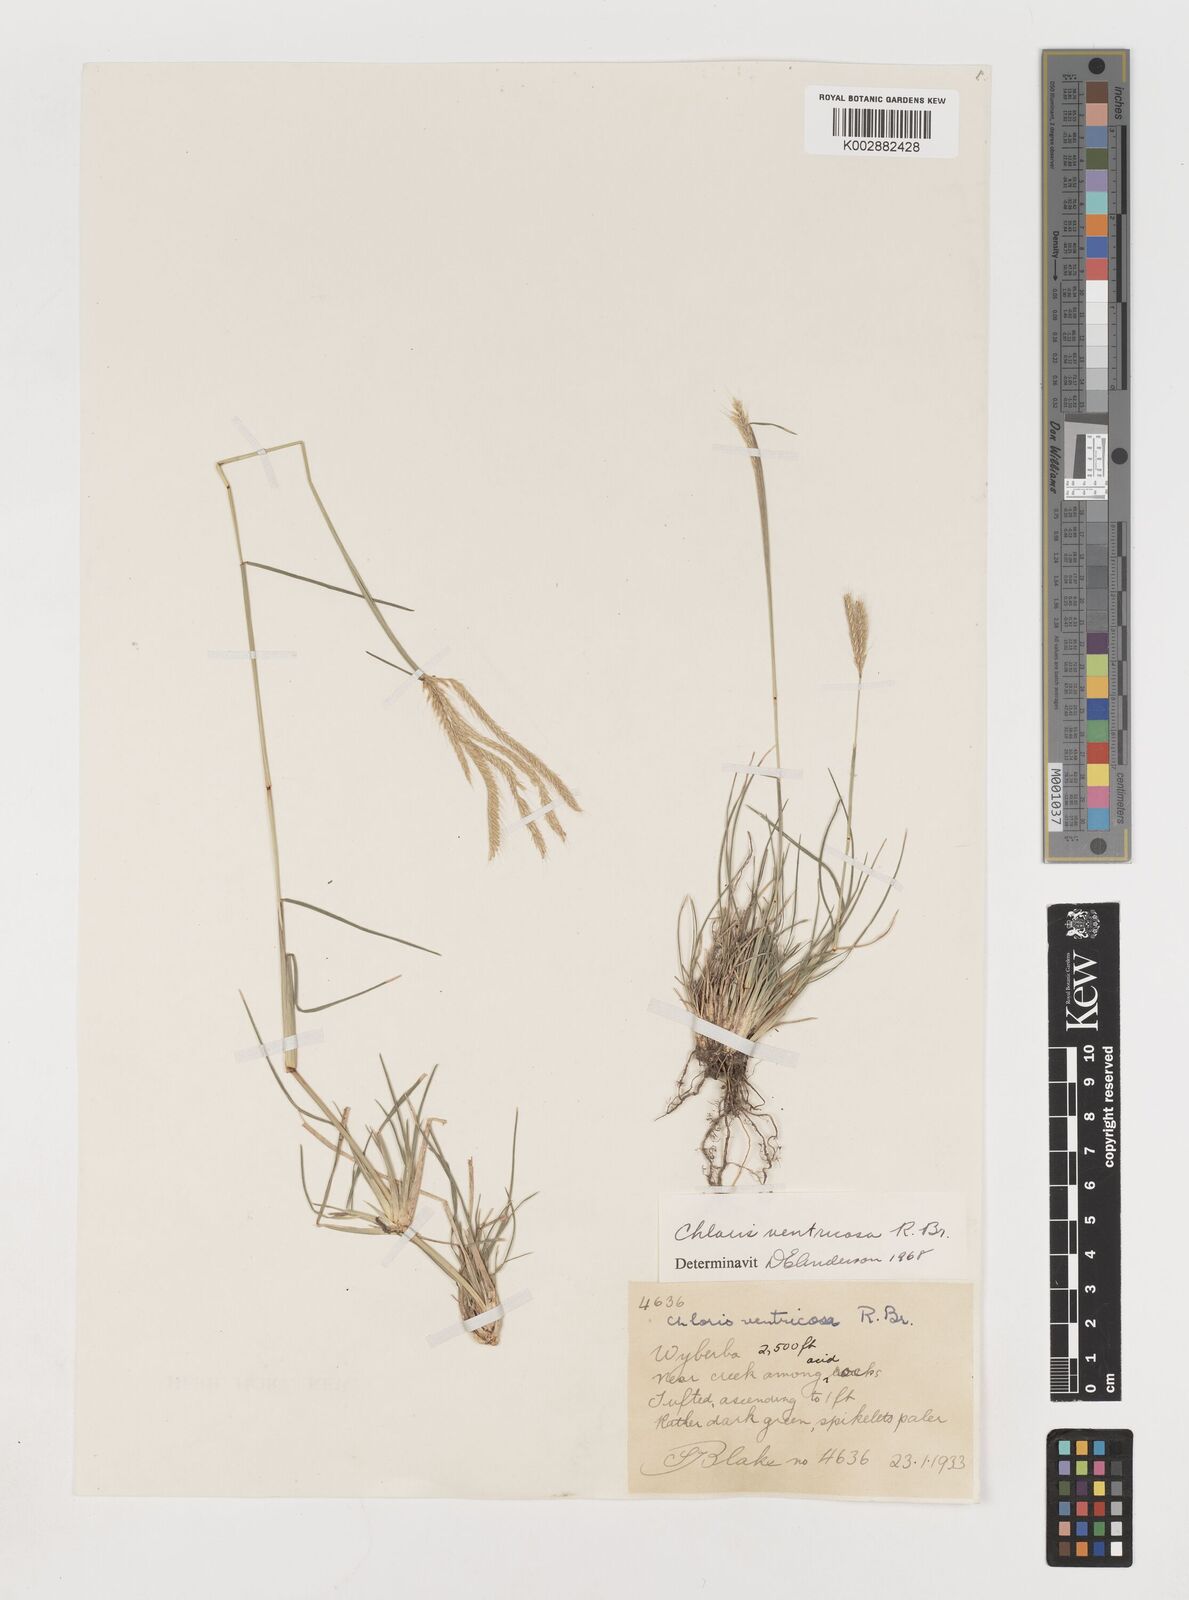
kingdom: Plantae
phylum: Tracheophyta
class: Liliopsida
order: Poales
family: Poaceae
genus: Chloris
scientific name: Chloris ventricosa
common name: Australian windmill grass
